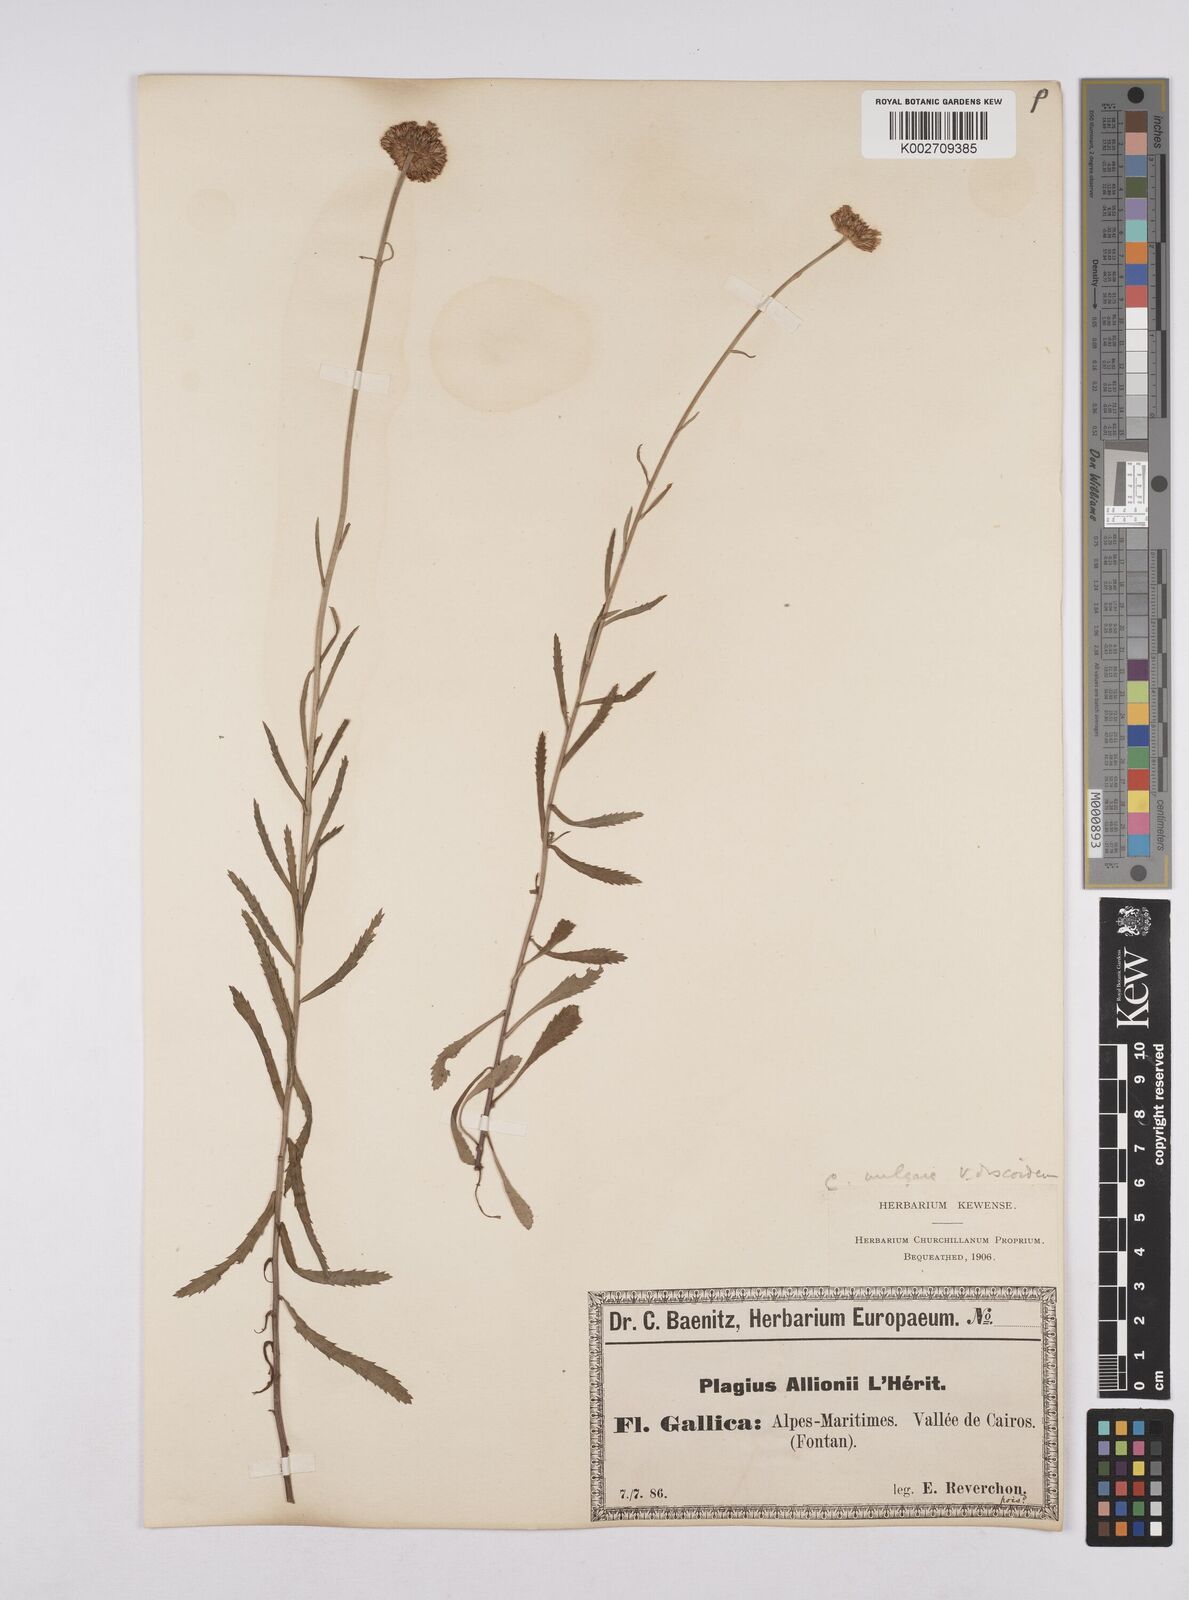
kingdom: Plantae
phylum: Tracheophyta
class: Magnoliopsida
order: Asterales
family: Asteraceae
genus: Leucanthemum
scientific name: Leucanthemum vulgare
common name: Oxeye daisy
